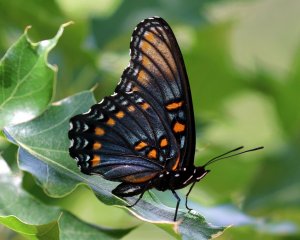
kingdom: Animalia
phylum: Arthropoda
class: Insecta
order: Lepidoptera
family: Nymphalidae
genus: Limenitis
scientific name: Limenitis astyanax
